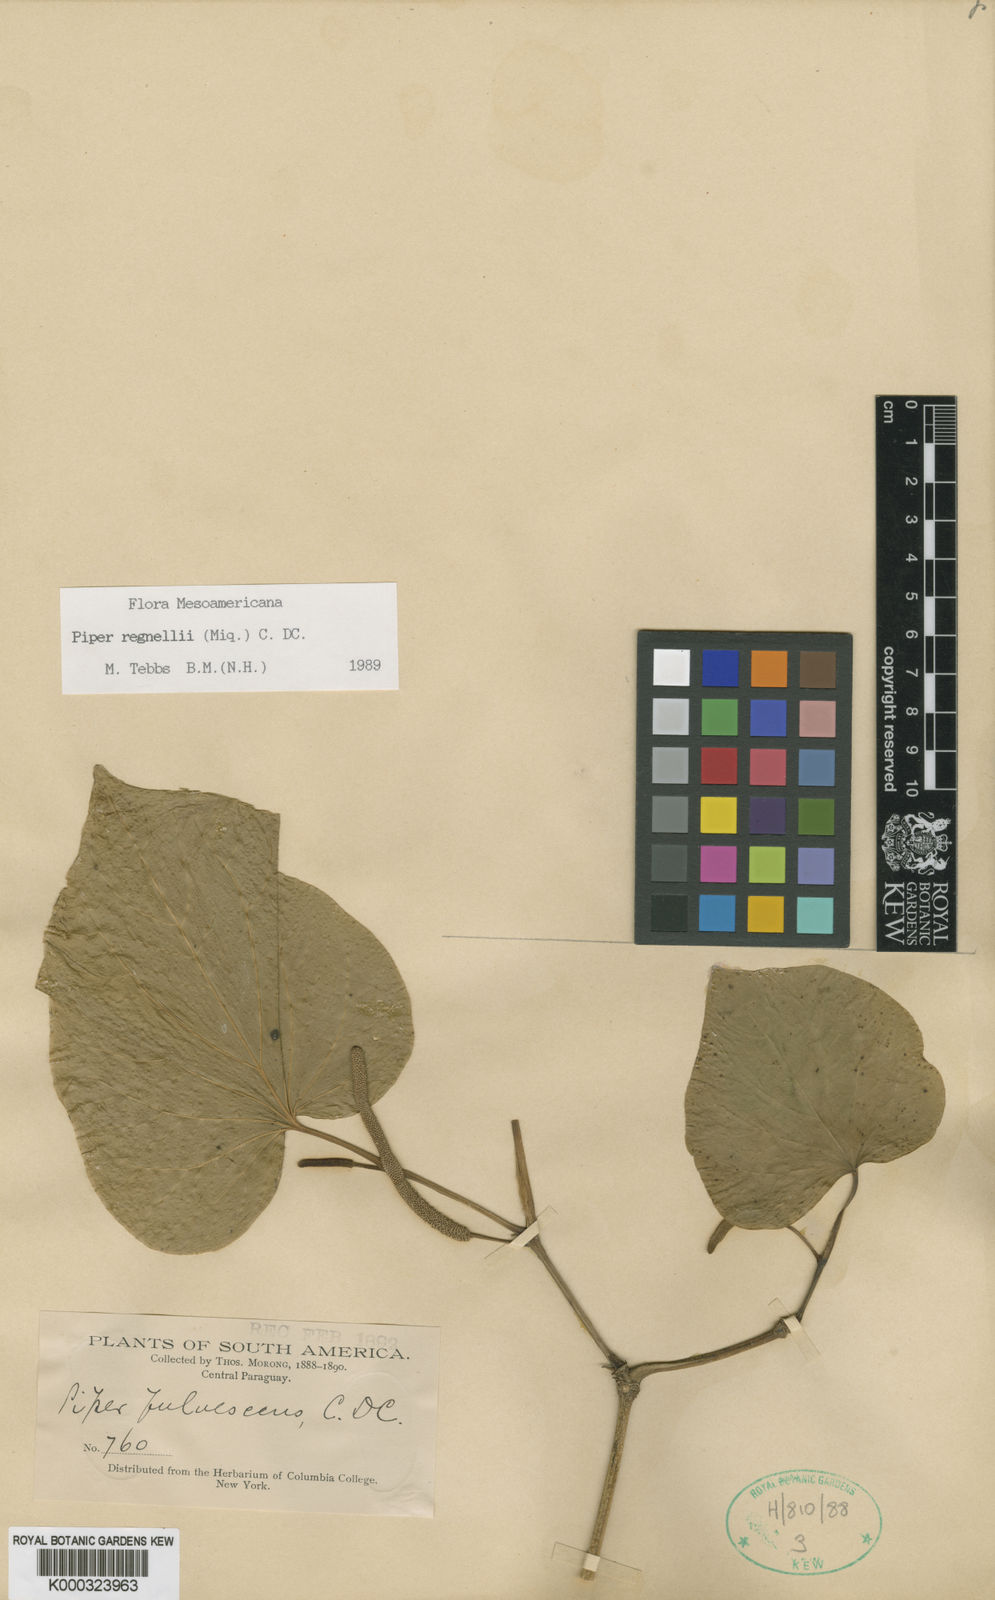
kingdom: Plantae
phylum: Tracheophyta
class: Magnoliopsida
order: Piperales
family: Piperaceae
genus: Piper
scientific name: Piper regnellii
